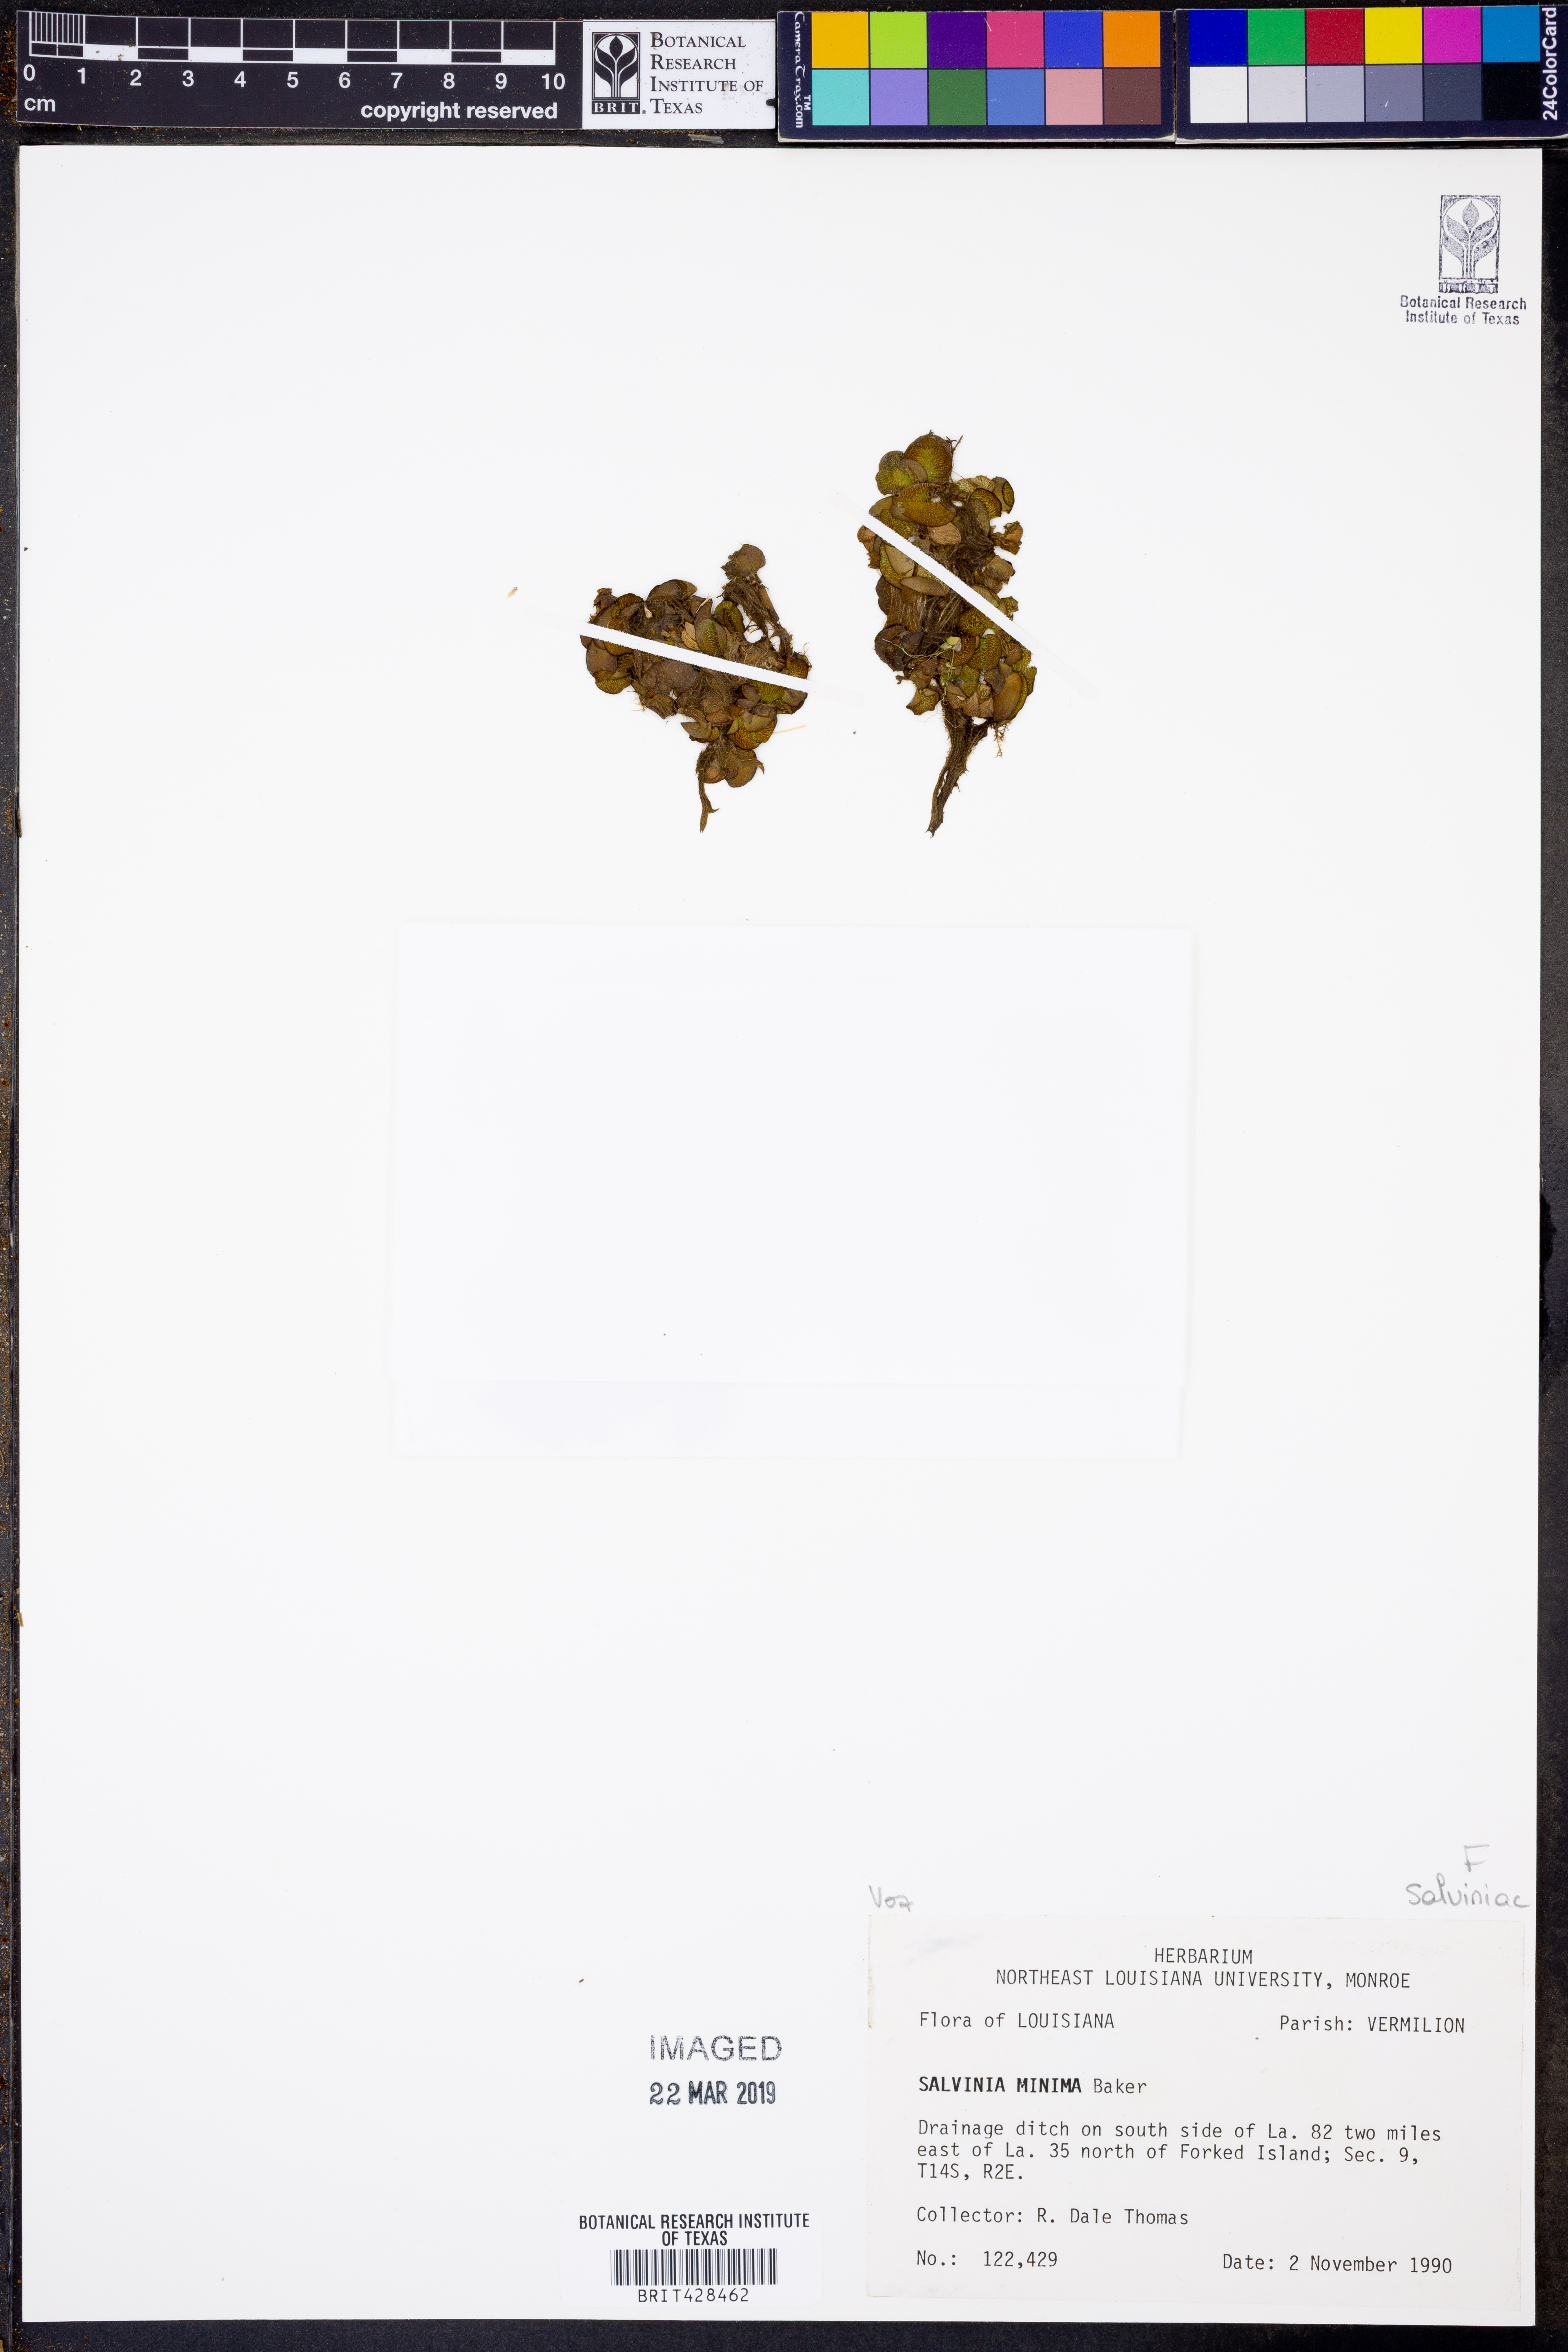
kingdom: Plantae
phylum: Tracheophyta
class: Polypodiopsida
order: Salviniales
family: Salviniaceae
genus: Salvinia
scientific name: Salvinia minima
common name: Water spangles
